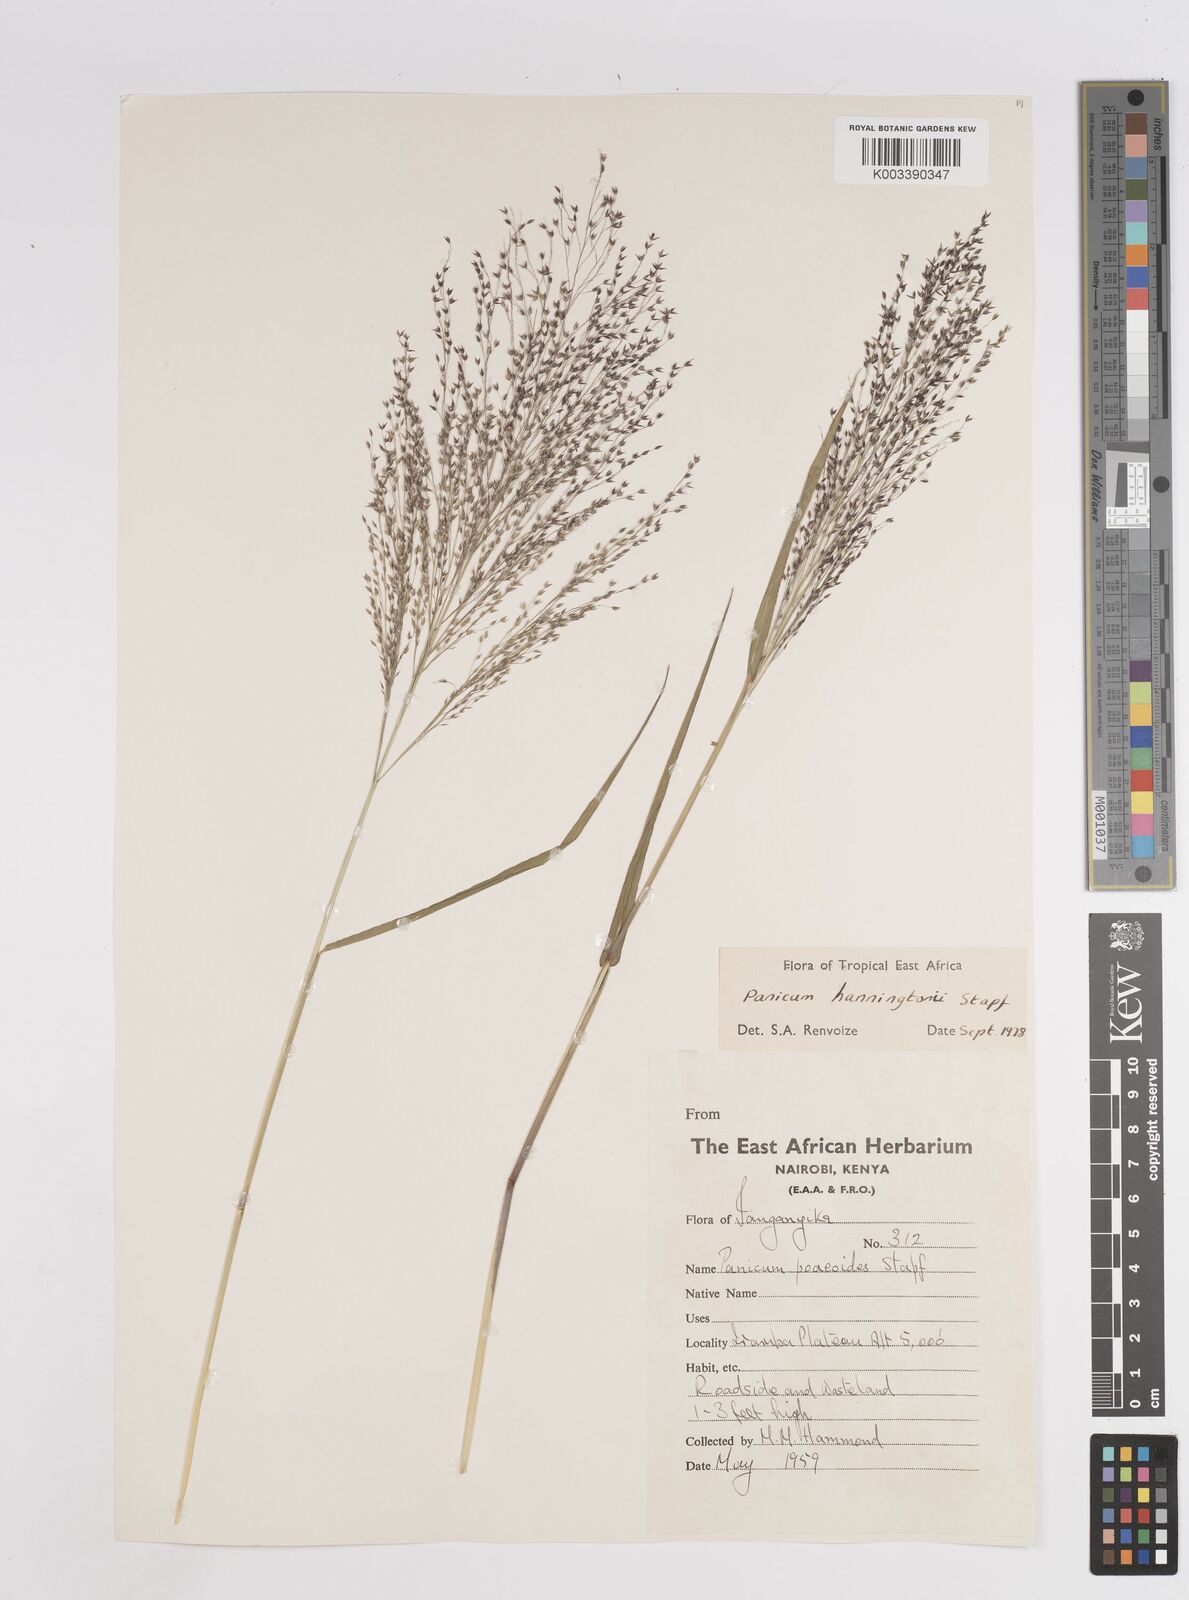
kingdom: Plantae
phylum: Tracheophyta
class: Liliopsida
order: Poales
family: Poaceae
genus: Panicum
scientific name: Panicum hanningtonii
